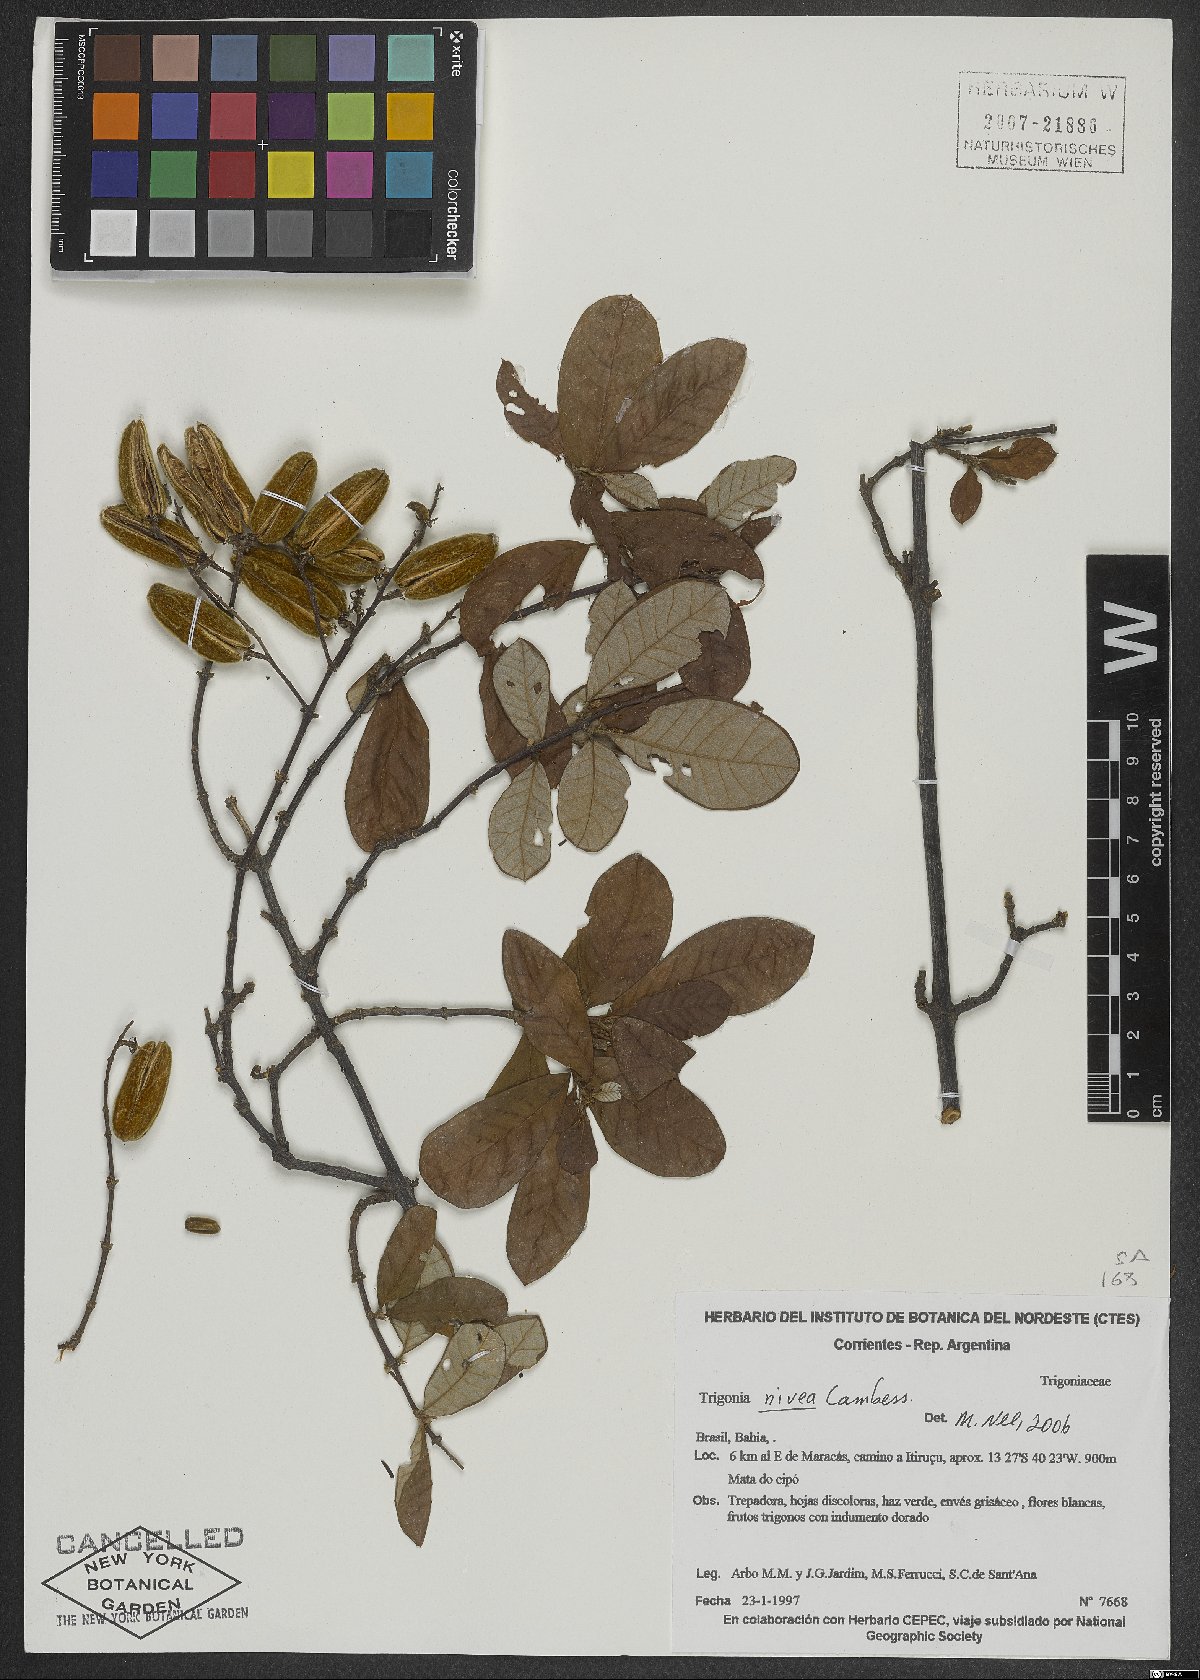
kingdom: Plantae
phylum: Tracheophyta
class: Magnoliopsida
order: Malpighiales
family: Trigoniaceae
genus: Trigonia
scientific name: Trigonia nivea
